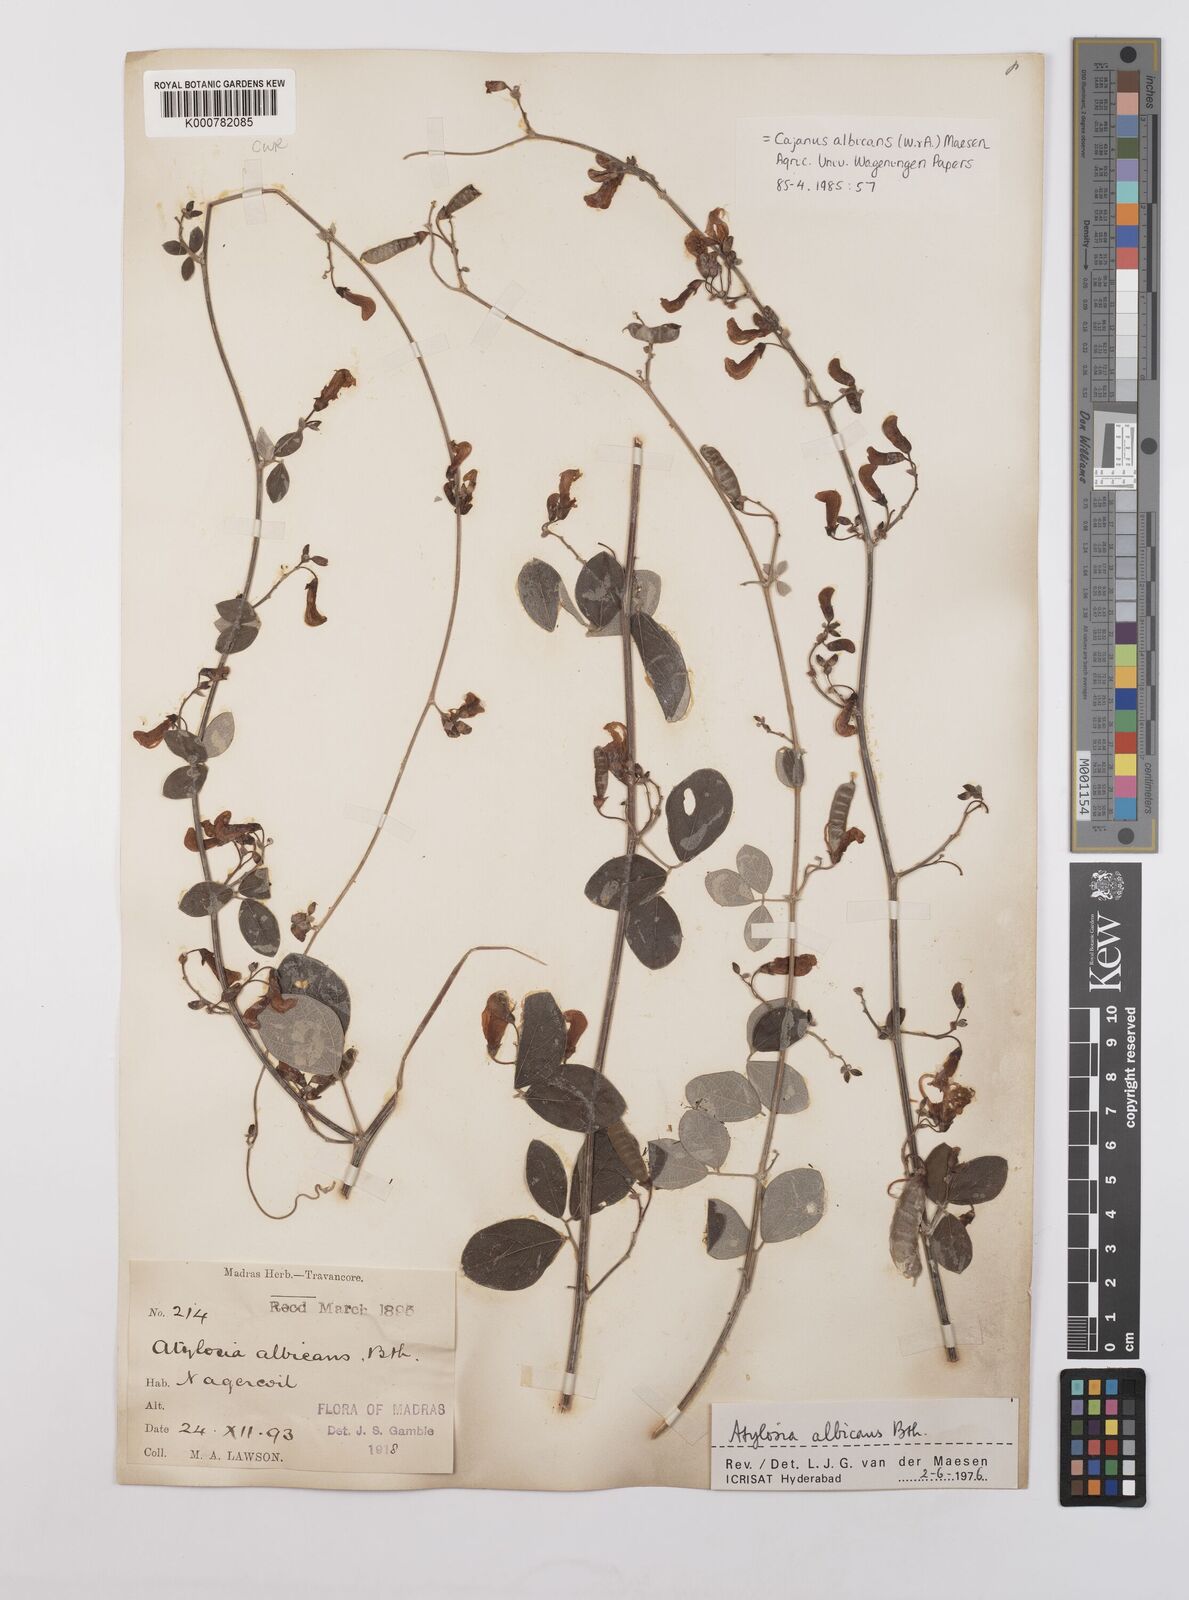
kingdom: Plantae
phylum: Tracheophyta
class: Magnoliopsida
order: Fabales
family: Fabaceae
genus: Cajanus
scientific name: Cajanus albicans
